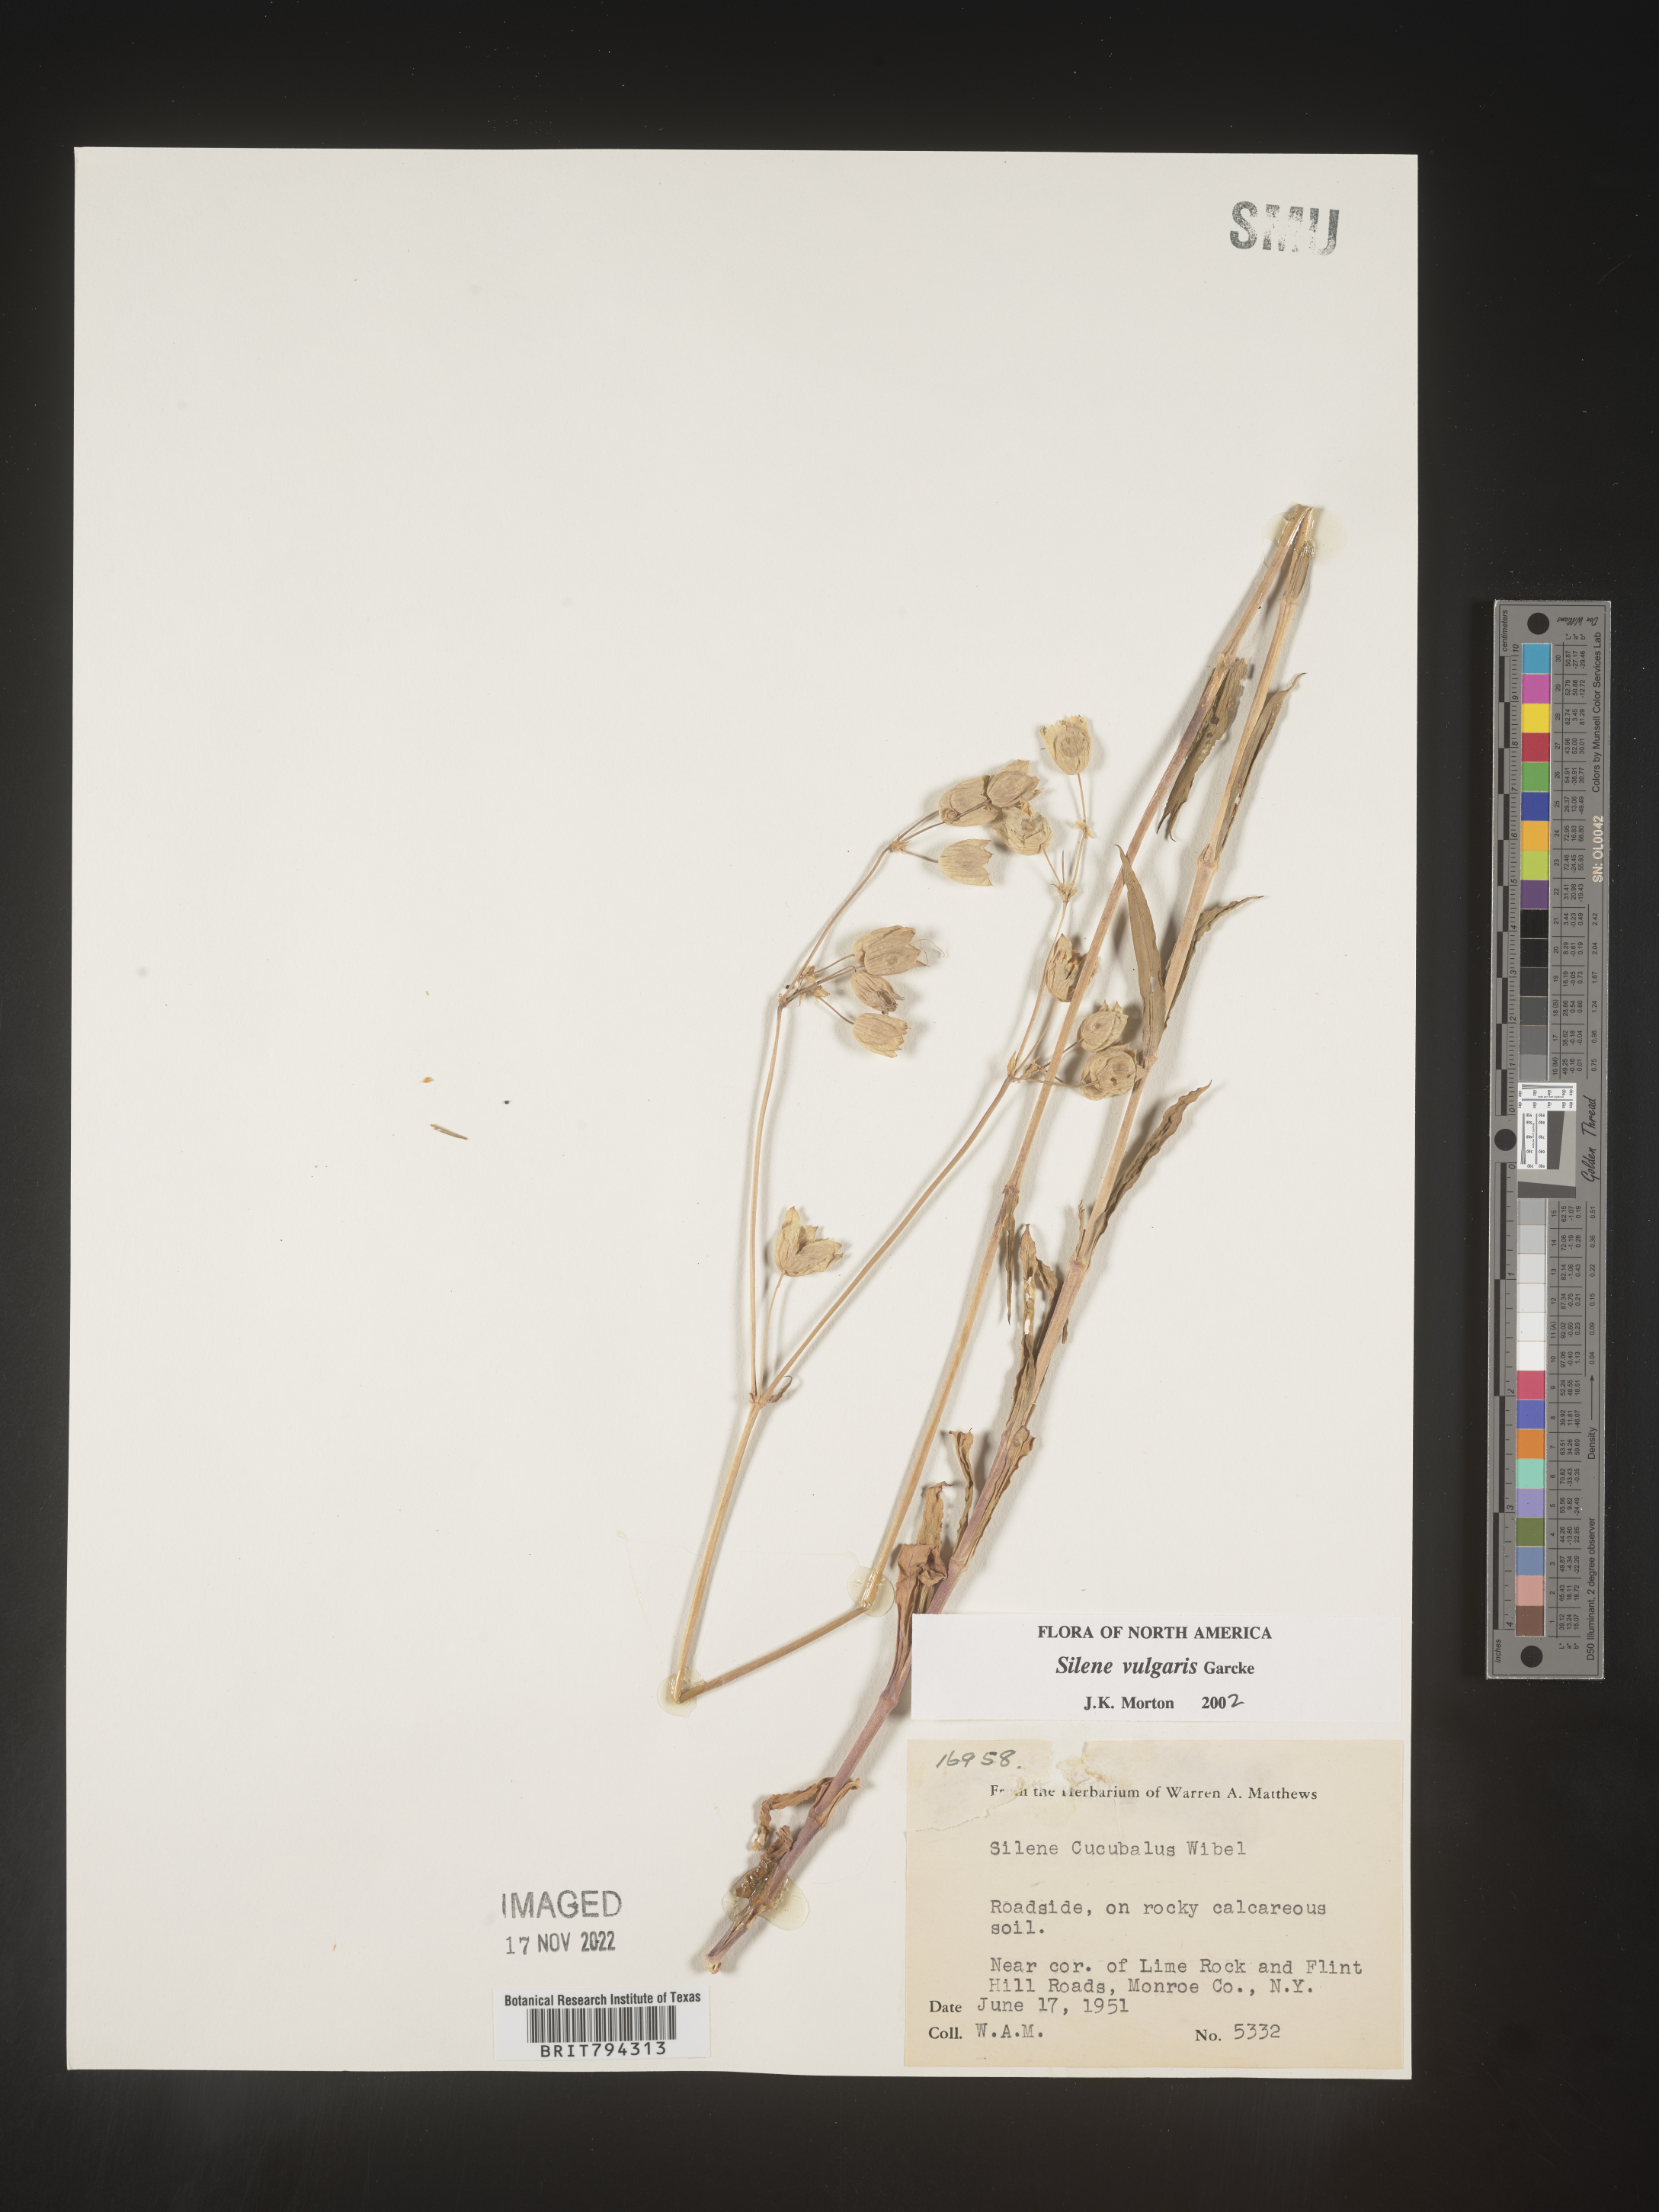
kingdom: Plantae
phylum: Tracheophyta
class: Magnoliopsida
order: Caryophyllales
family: Caryophyllaceae
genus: Silene
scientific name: Silene vulgaris
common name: Bladder campion
